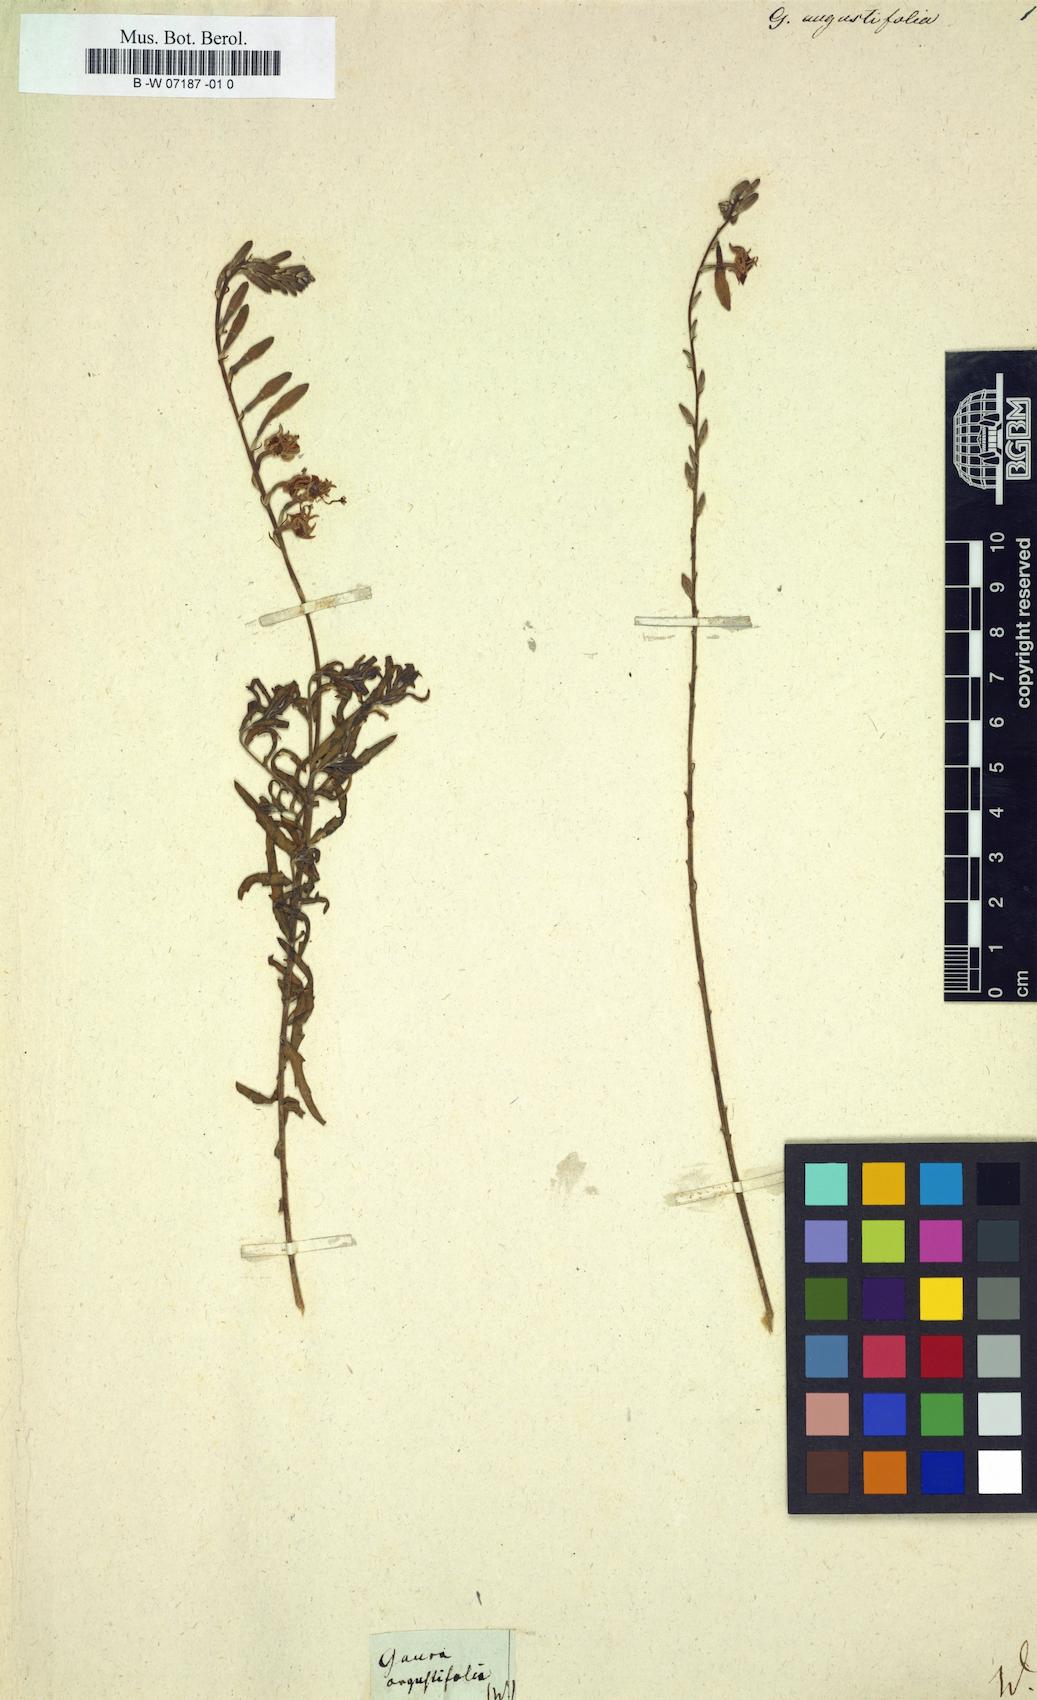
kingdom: Plantae
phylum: Tracheophyta
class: Magnoliopsida
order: Myrtales
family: Onagraceae
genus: Oenothera
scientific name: Oenothera
